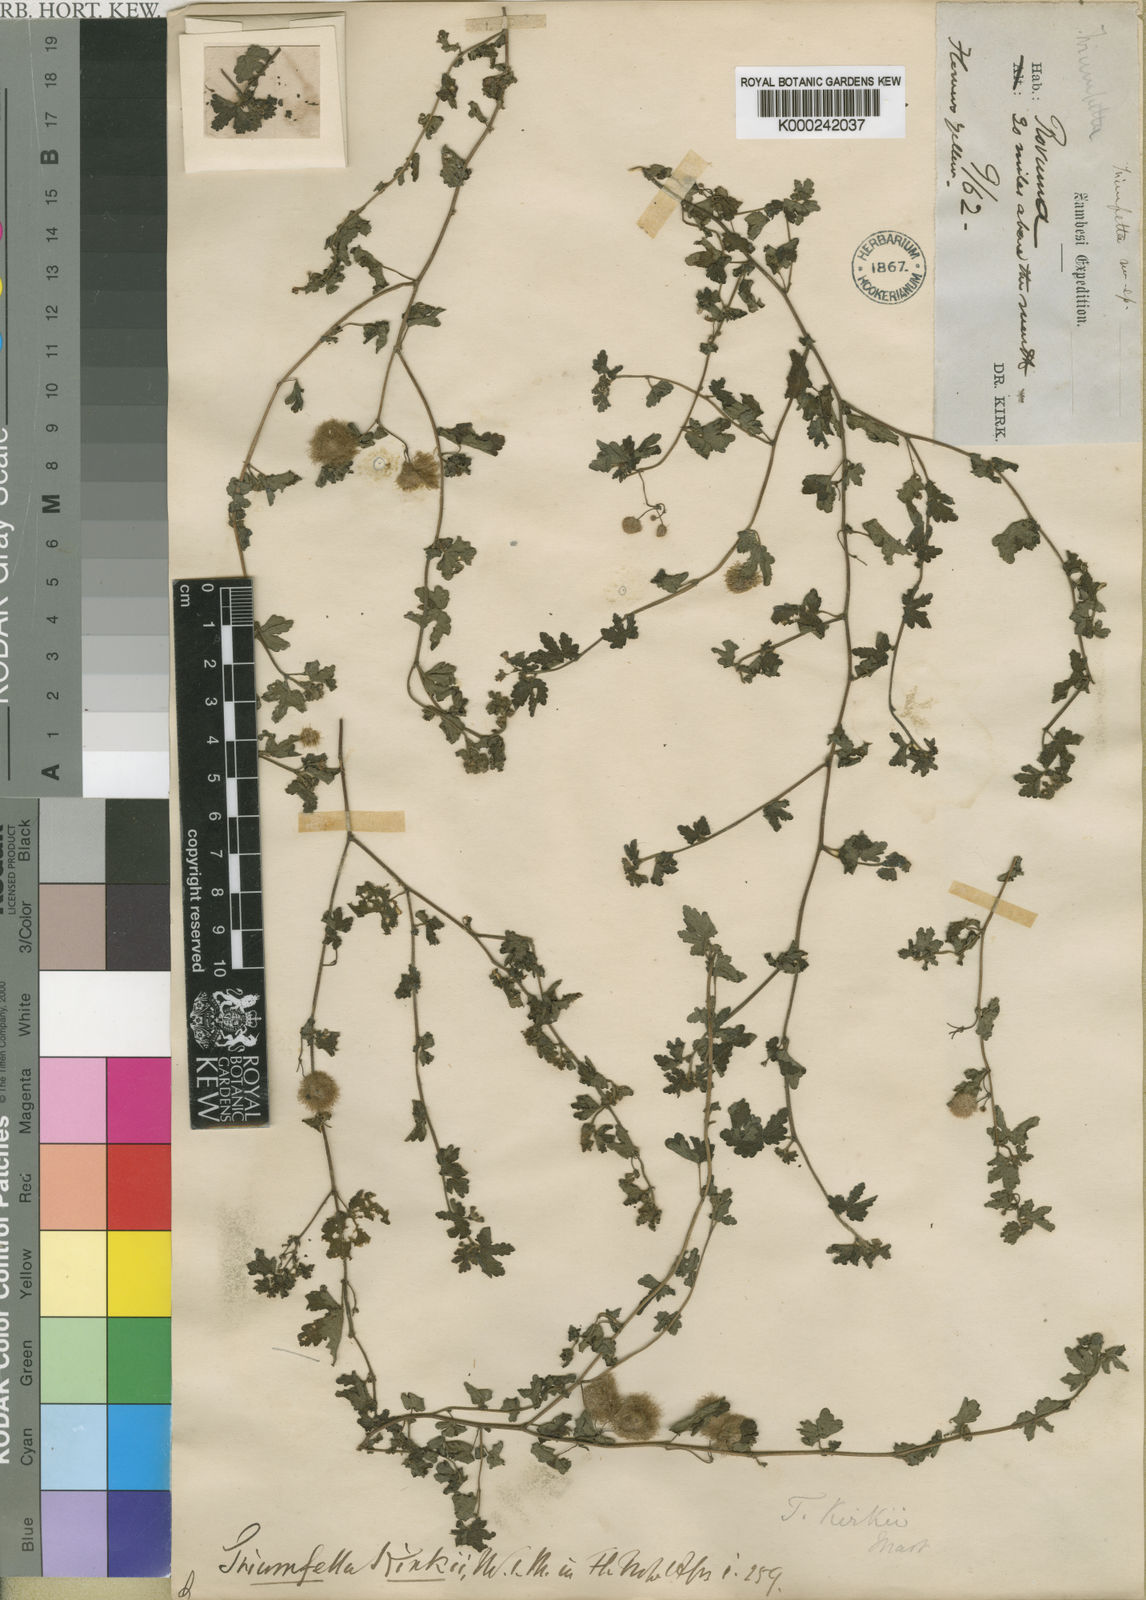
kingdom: Plantae
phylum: Tracheophyta
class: Magnoliopsida
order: Malvales
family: Malvaceae
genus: Triumfetta
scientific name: Triumfetta kirkii
